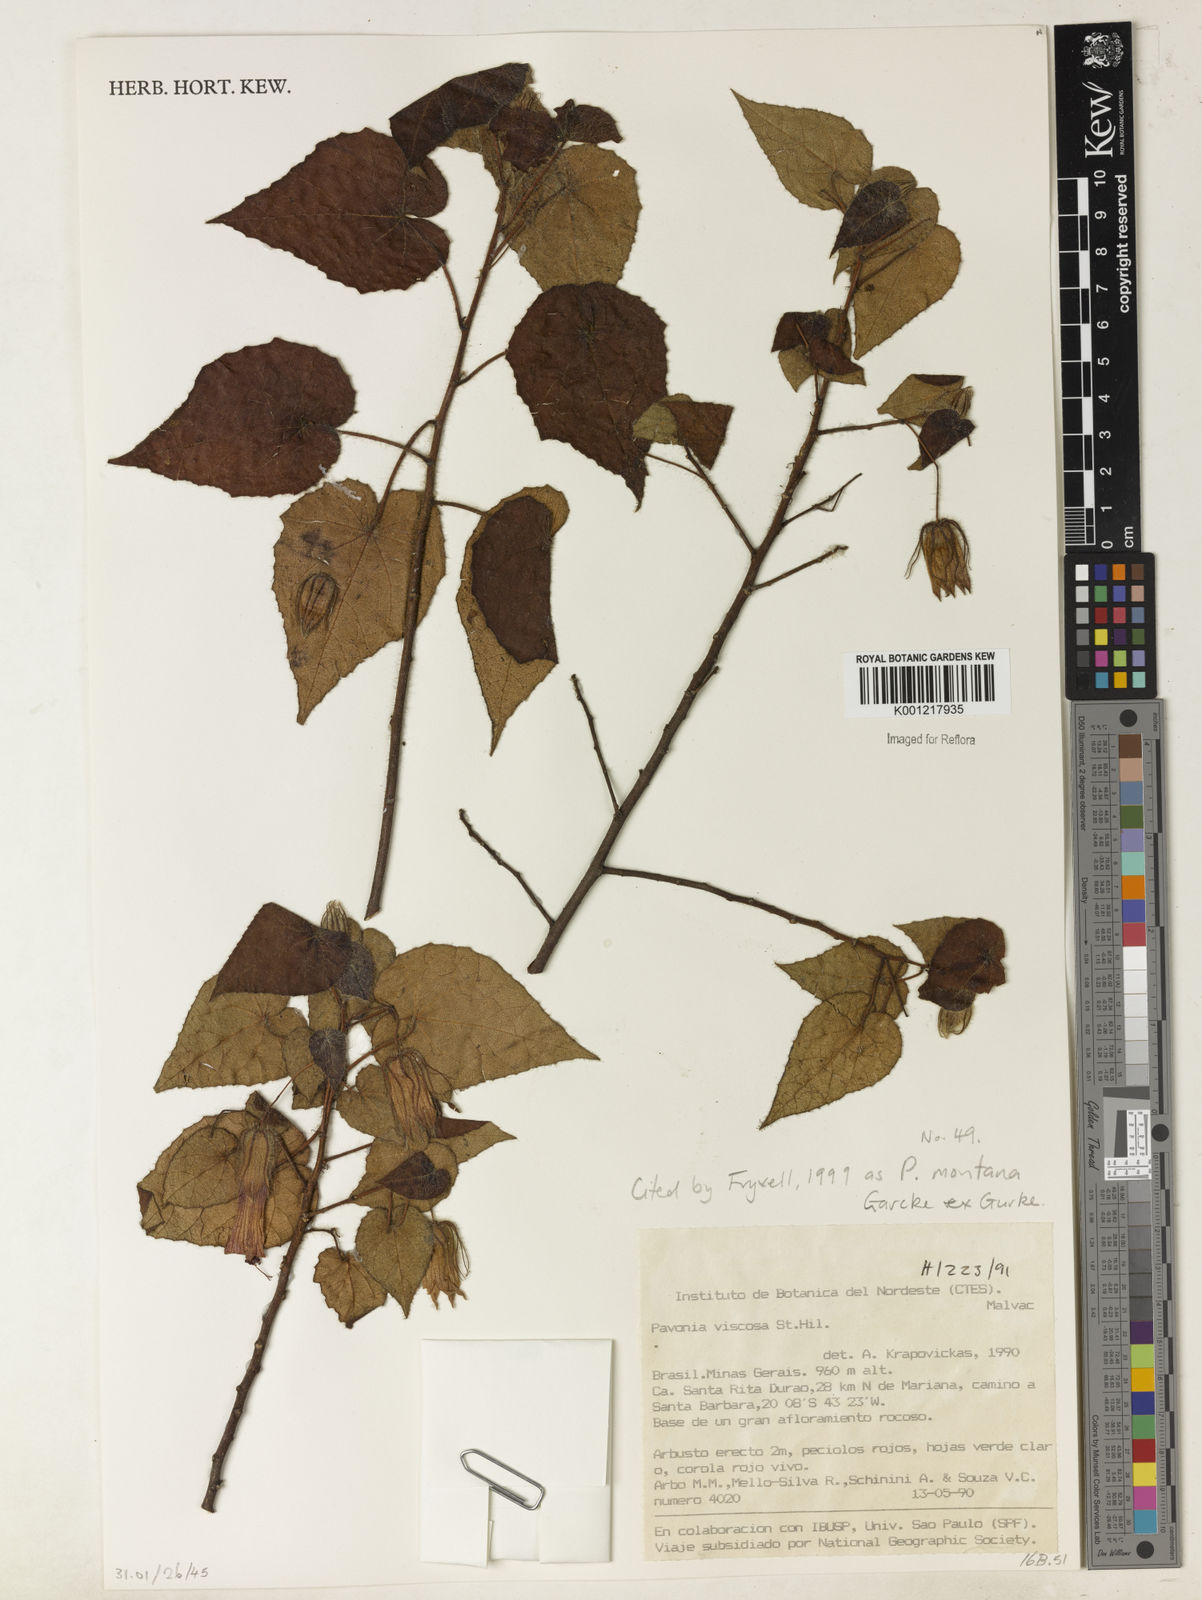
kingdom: Plantae
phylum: Tracheophyta
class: Magnoliopsida
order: Malvales
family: Malvaceae
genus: Pavonia
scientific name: Pavonia
